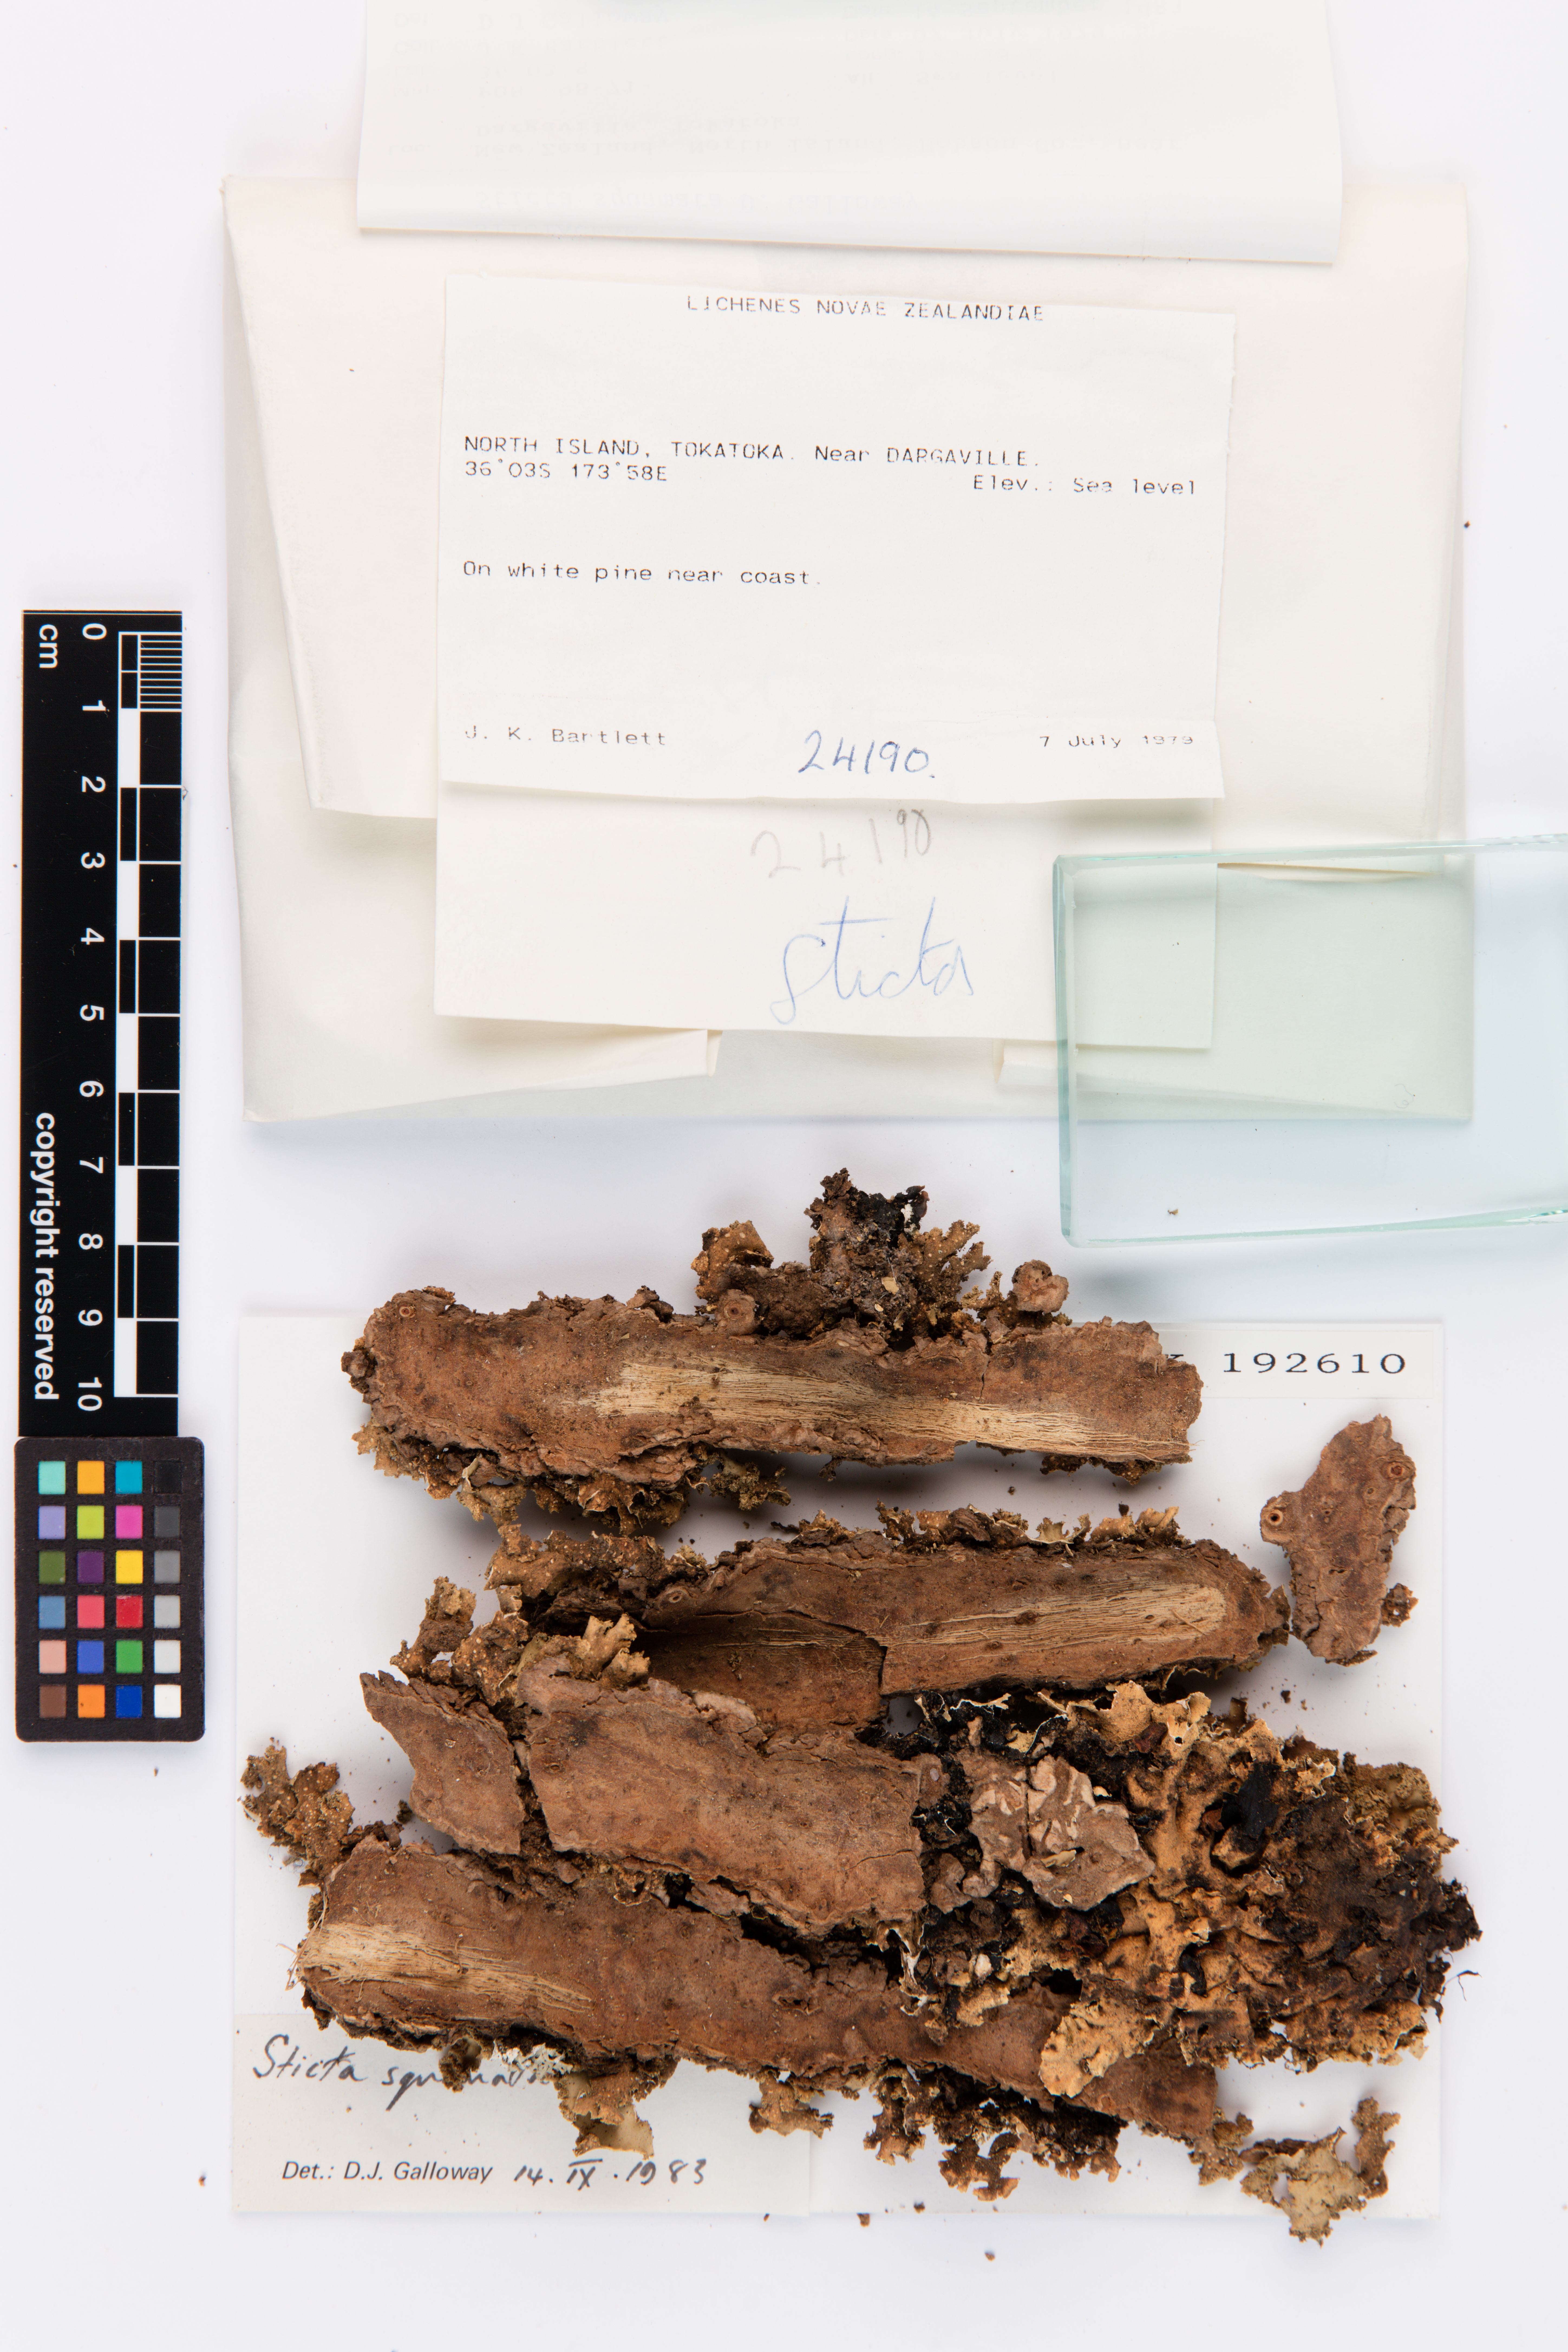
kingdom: Fungi
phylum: Ascomycota
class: Lecanoromycetes
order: Peltigerales
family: Lobariaceae
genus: Sticta
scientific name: Sticta squamata
